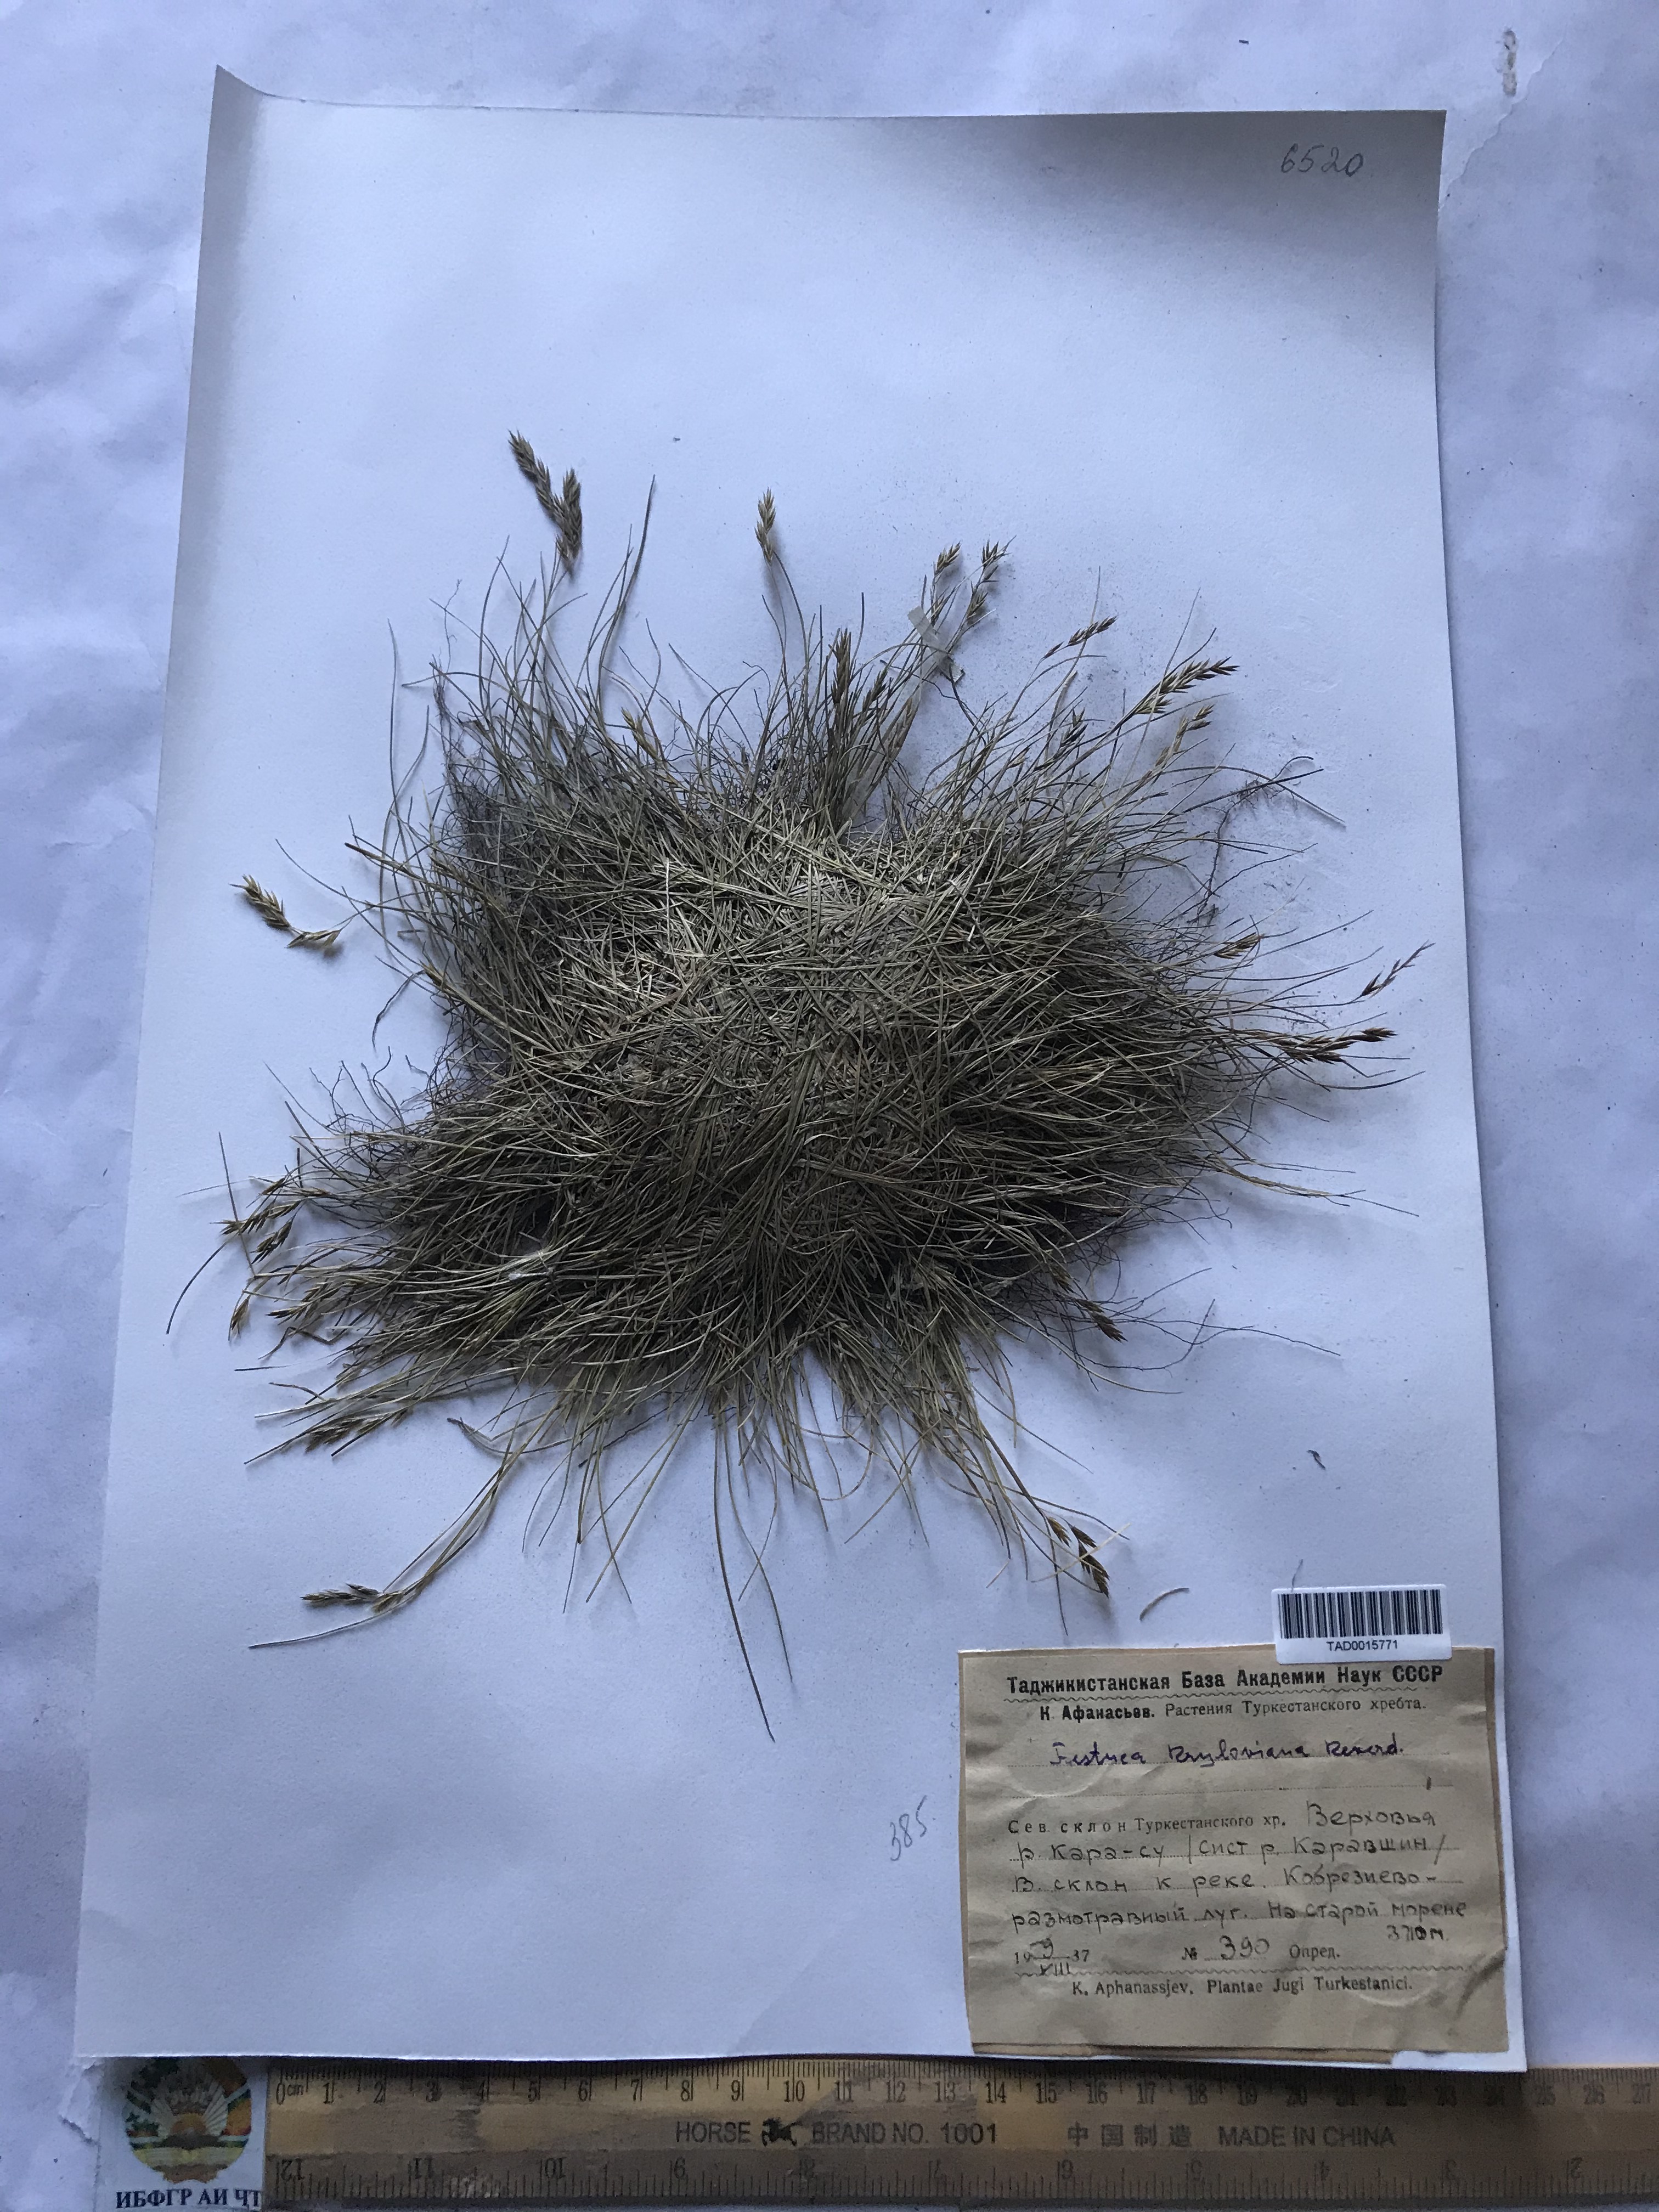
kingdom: Plantae
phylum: Tracheophyta
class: Liliopsida
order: Poales
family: Poaceae
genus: Festuca
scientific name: Festuca kryloviana
